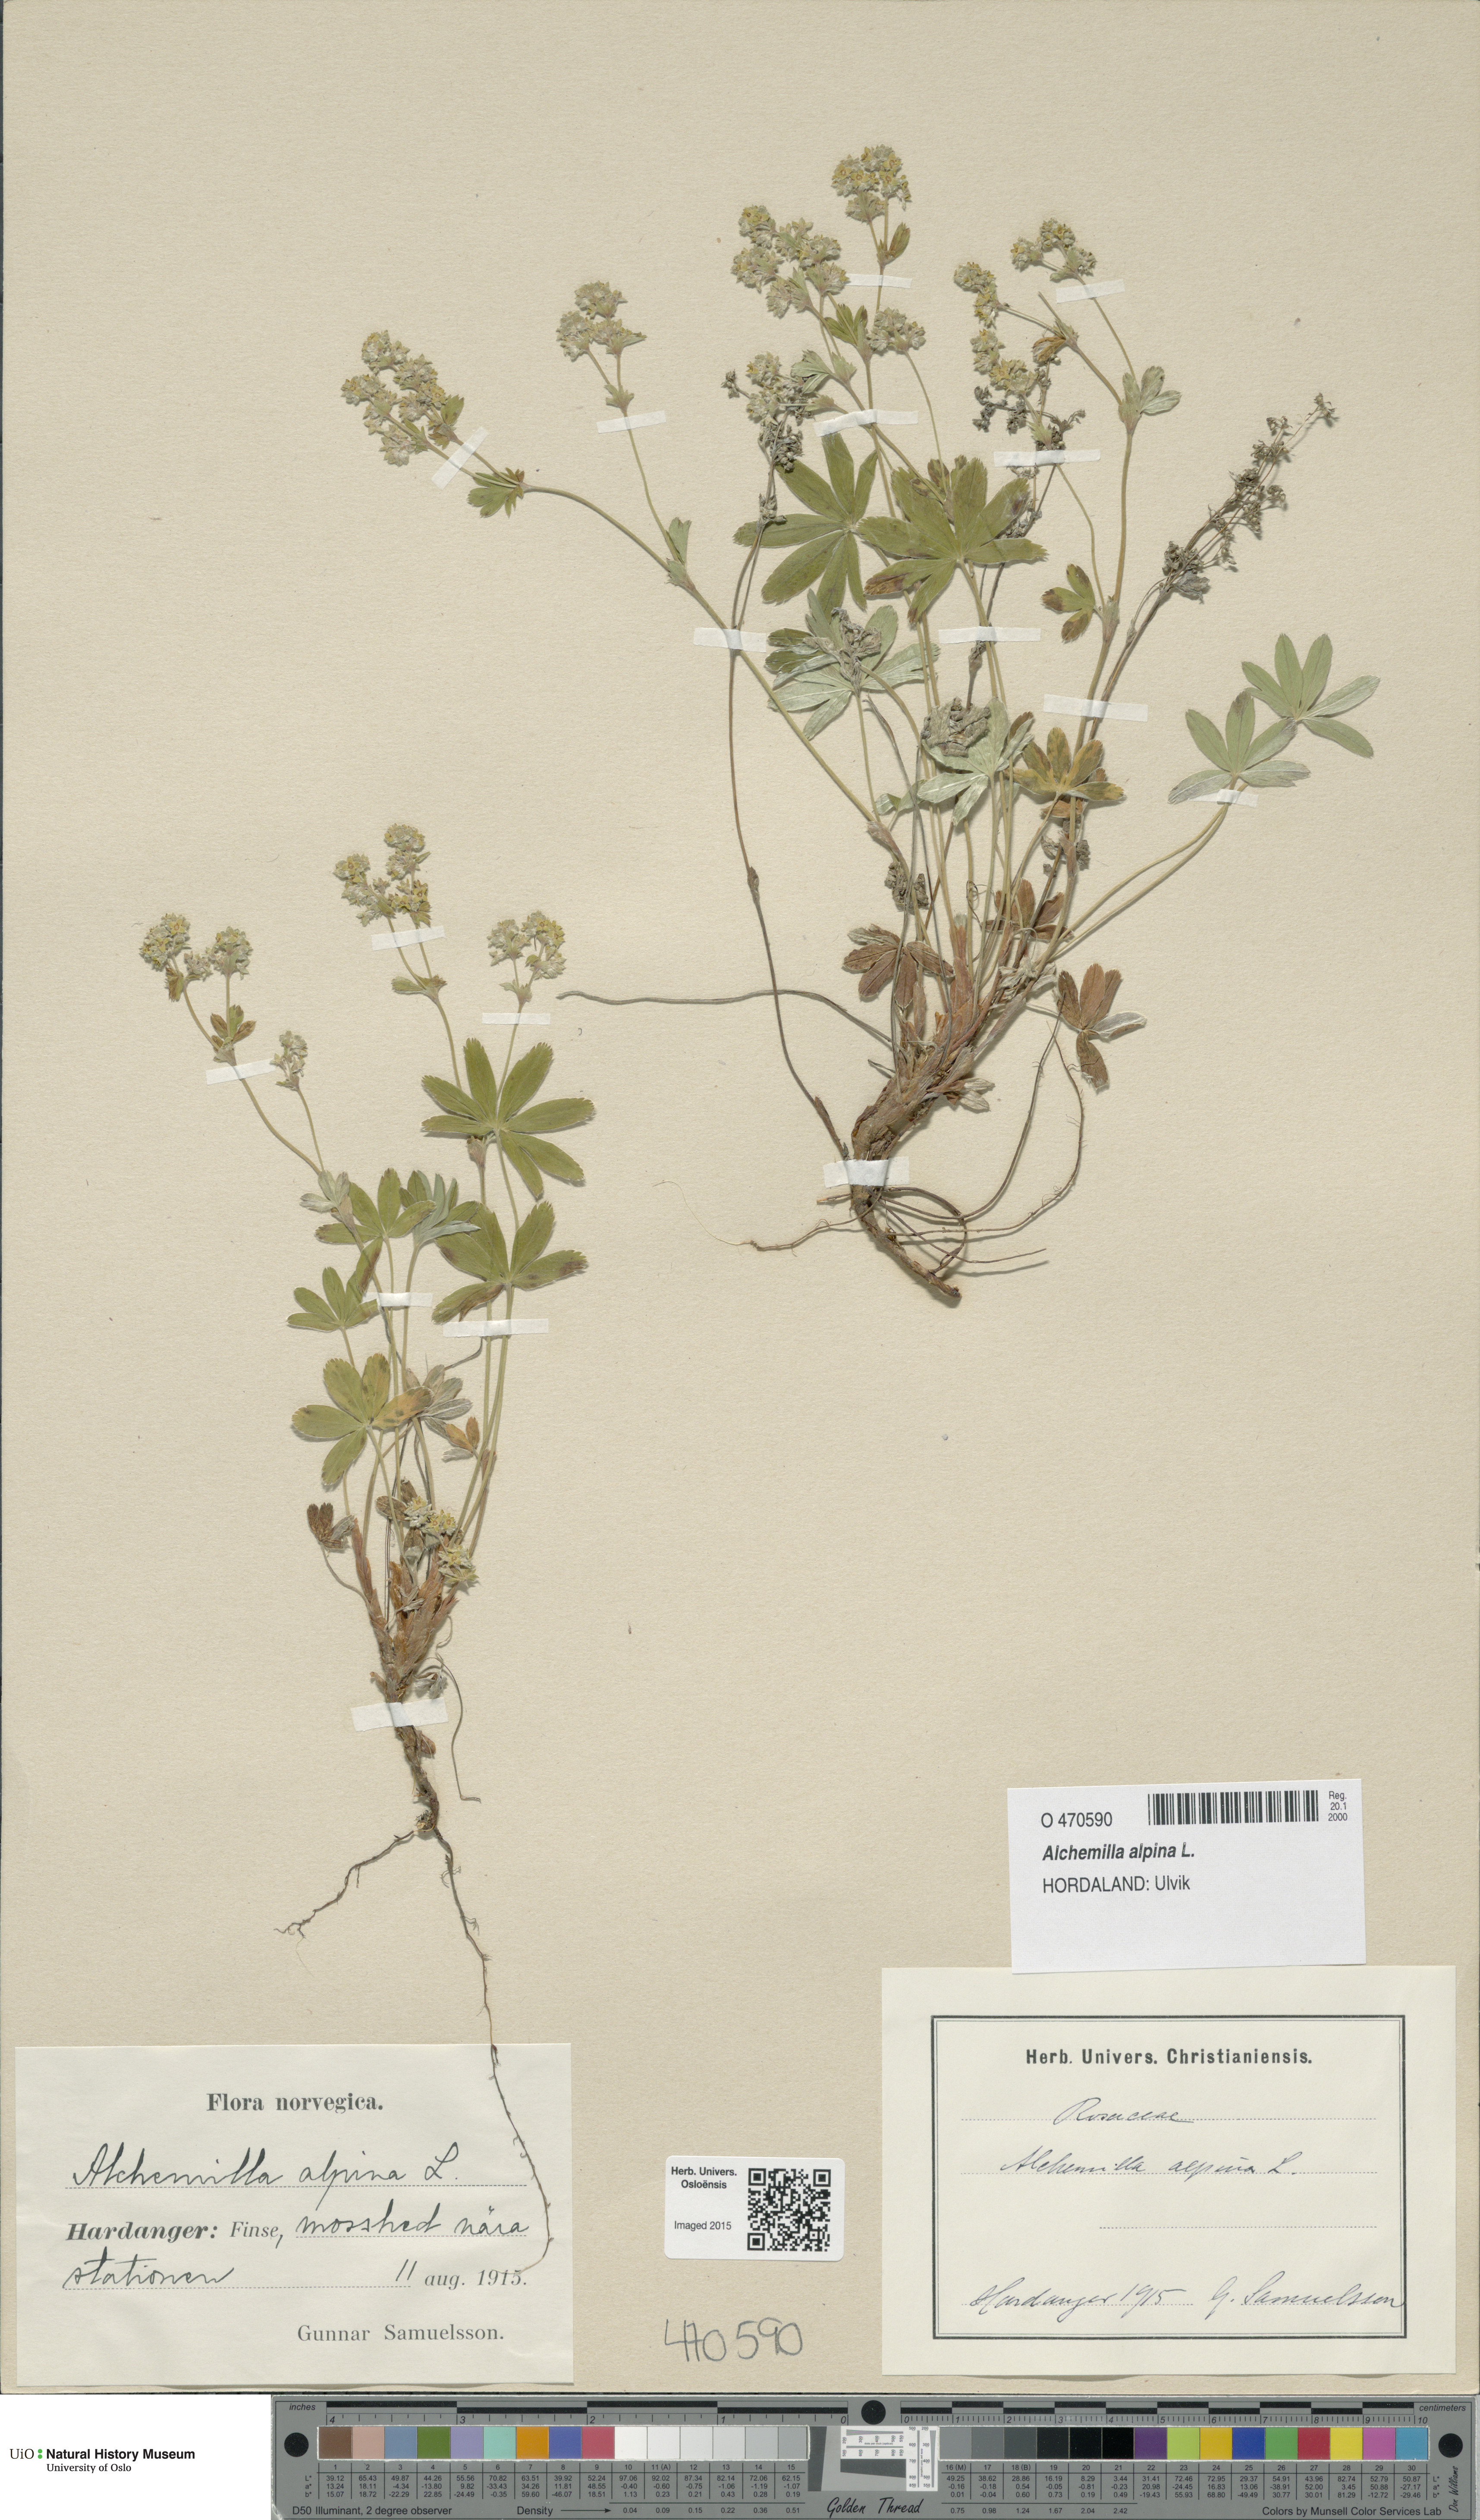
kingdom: Plantae
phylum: Tracheophyta
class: Magnoliopsida
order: Rosales
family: Rosaceae
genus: Alchemilla
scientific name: Alchemilla alpina
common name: Alpine lady's-mantle
